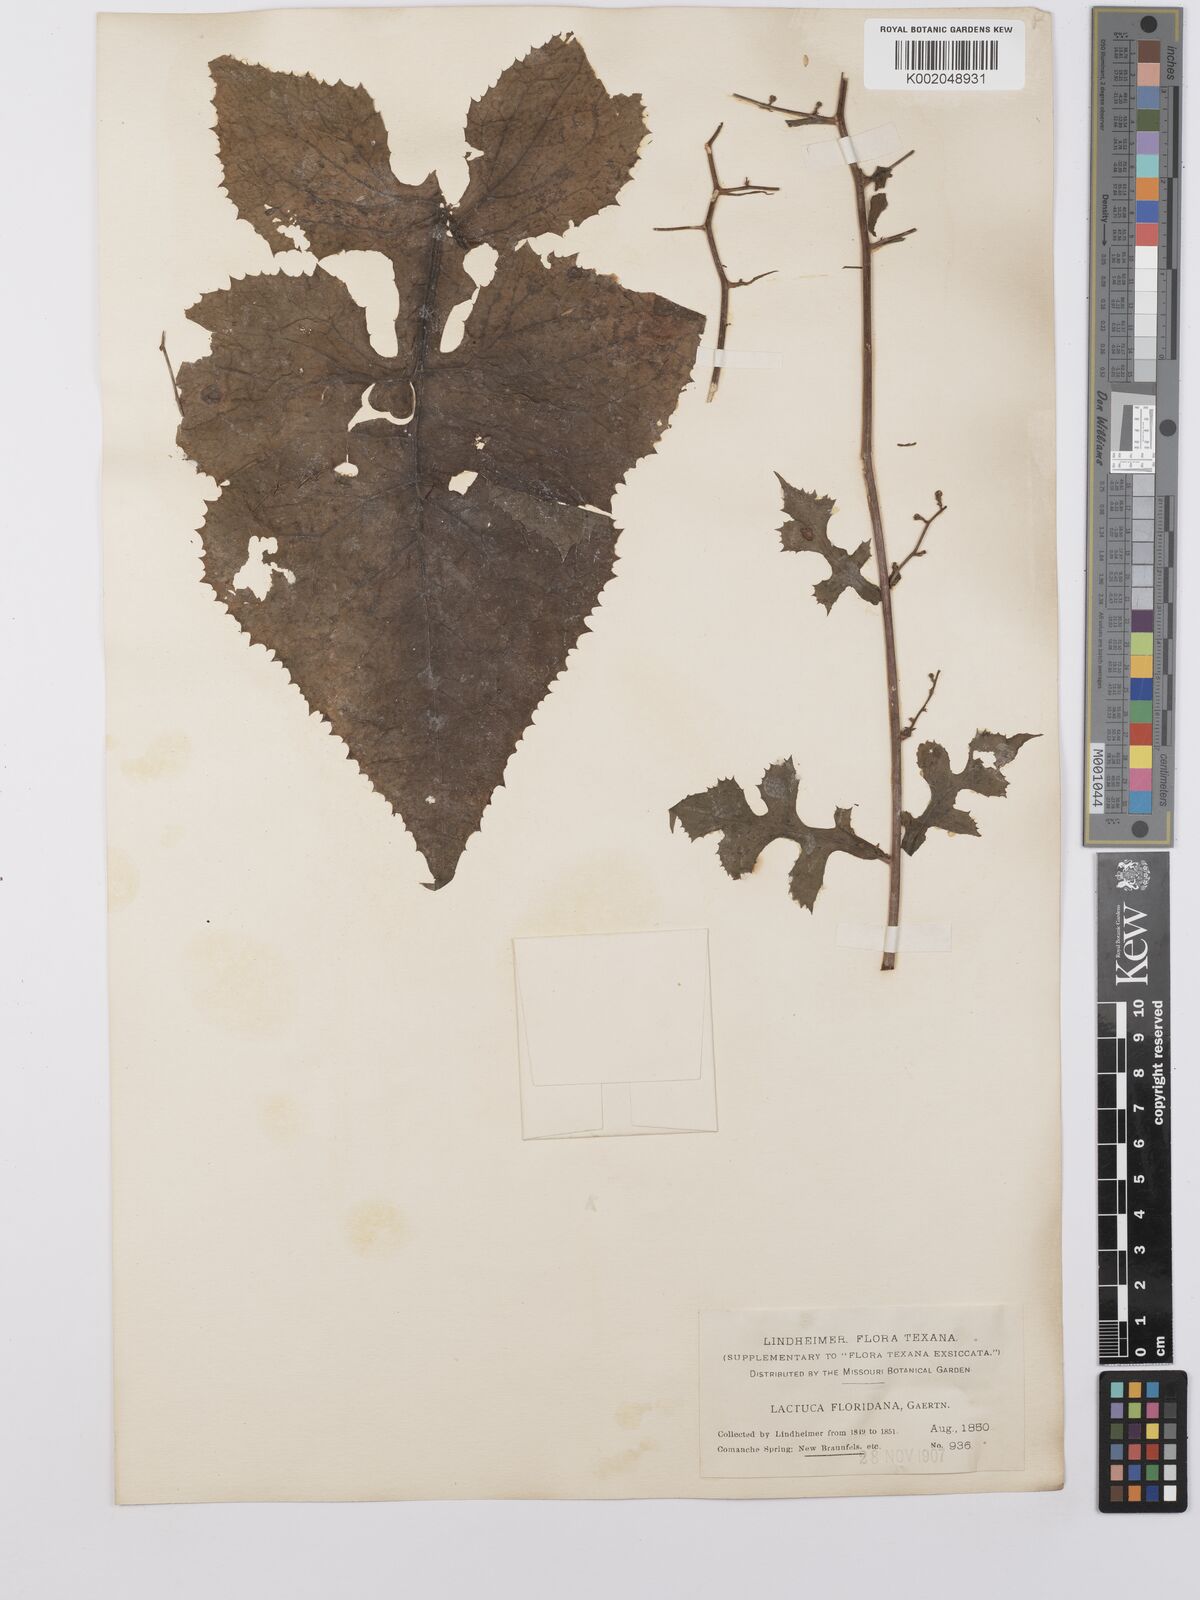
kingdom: Plantae
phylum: Tracheophyta
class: Magnoliopsida
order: Asterales
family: Asteraceae
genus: Lactuca
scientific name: Lactuca floridana
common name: Woodland lettuce
